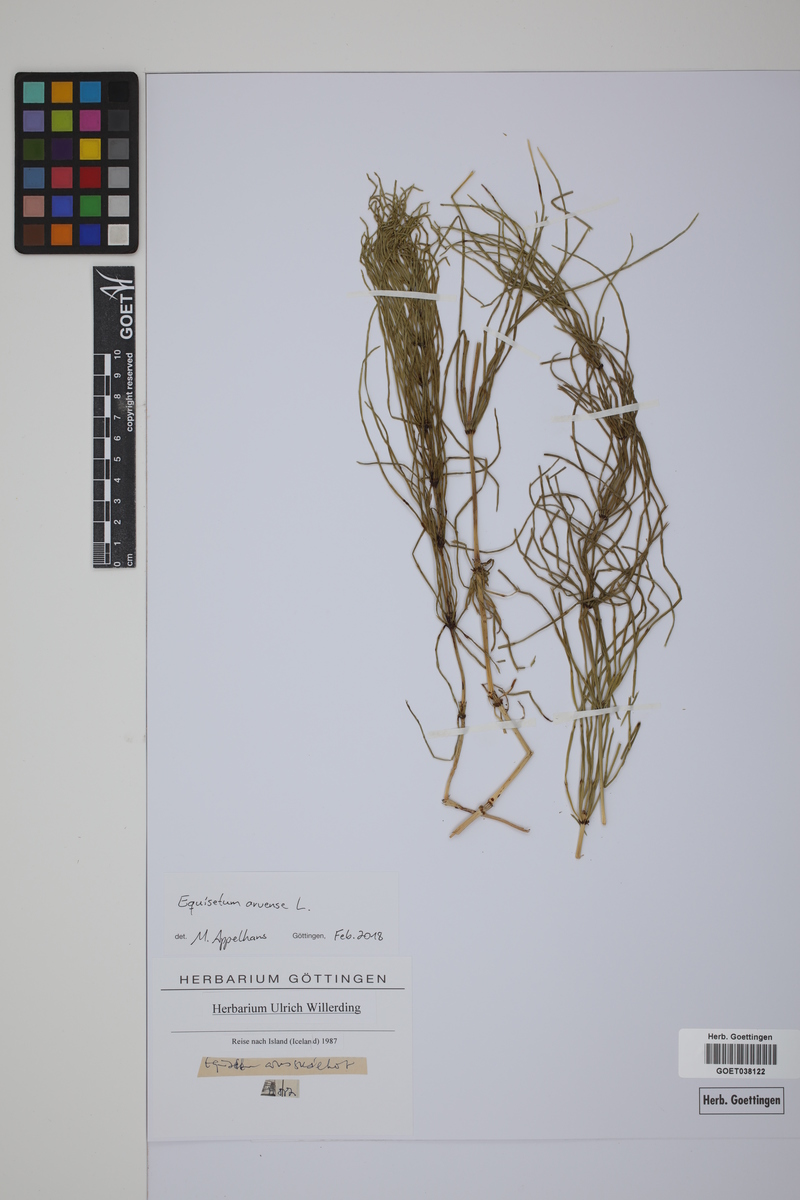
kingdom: Plantae
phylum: Tracheophyta
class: Polypodiopsida
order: Equisetales
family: Equisetaceae
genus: Equisetum
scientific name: Equisetum arvense
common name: Field horsetail
